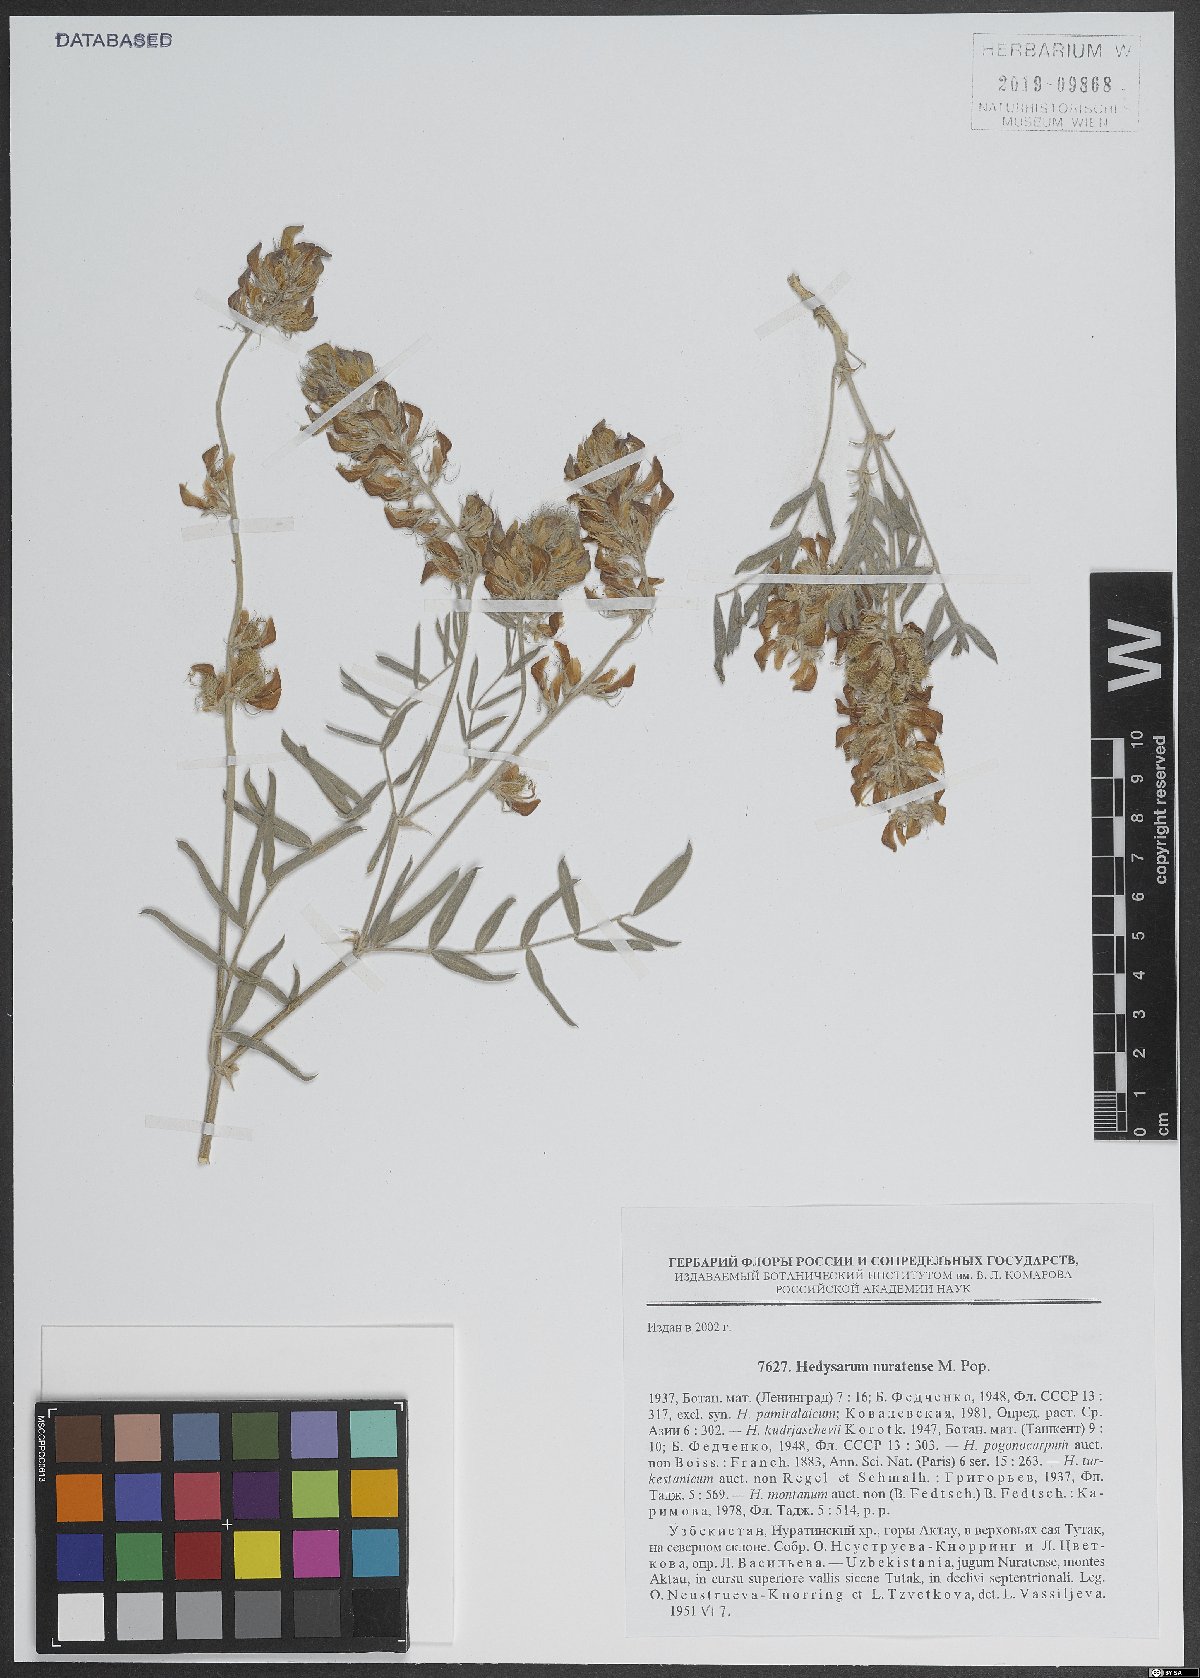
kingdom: Plantae
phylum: Tracheophyta
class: Magnoliopsida
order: Fabales
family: Fabaceae
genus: Hedysarum
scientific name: Hedysarum nuratense
